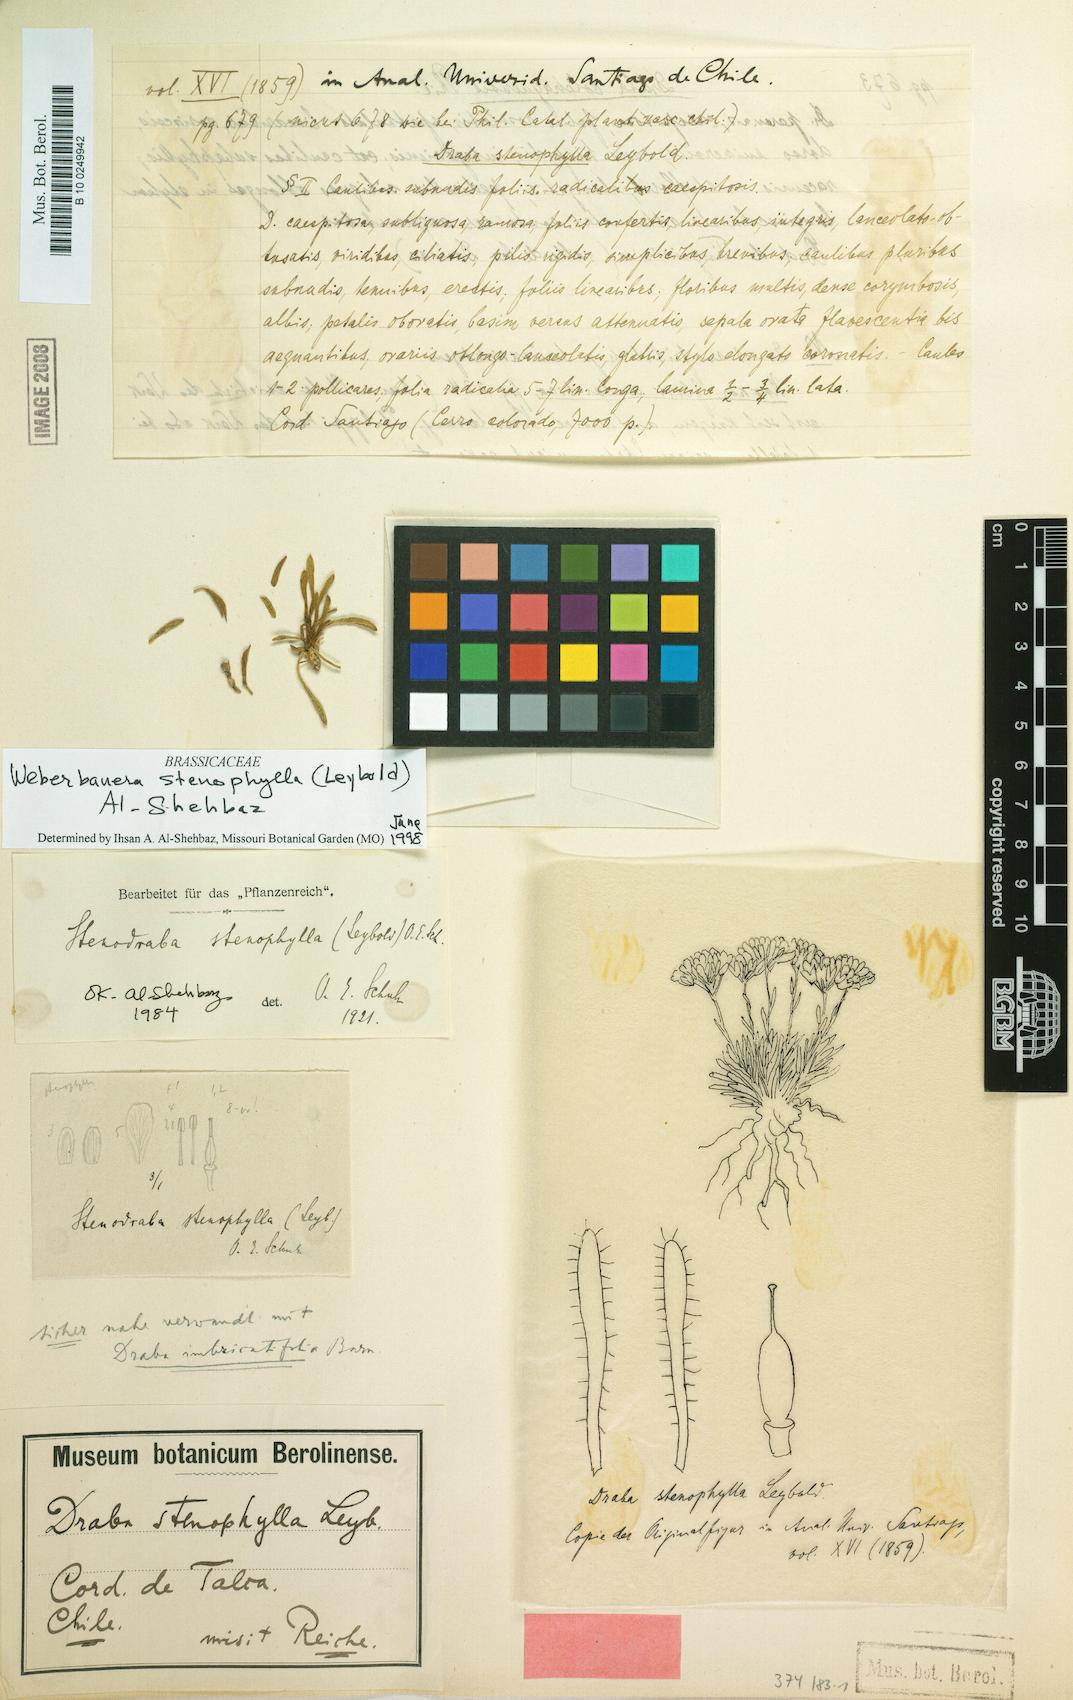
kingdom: Plantae
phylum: Tracheophyta
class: Magnoliopsida
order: Brassicales
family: Brassicaceae
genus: Stenodraba
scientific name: Stenodraba stenophylla
